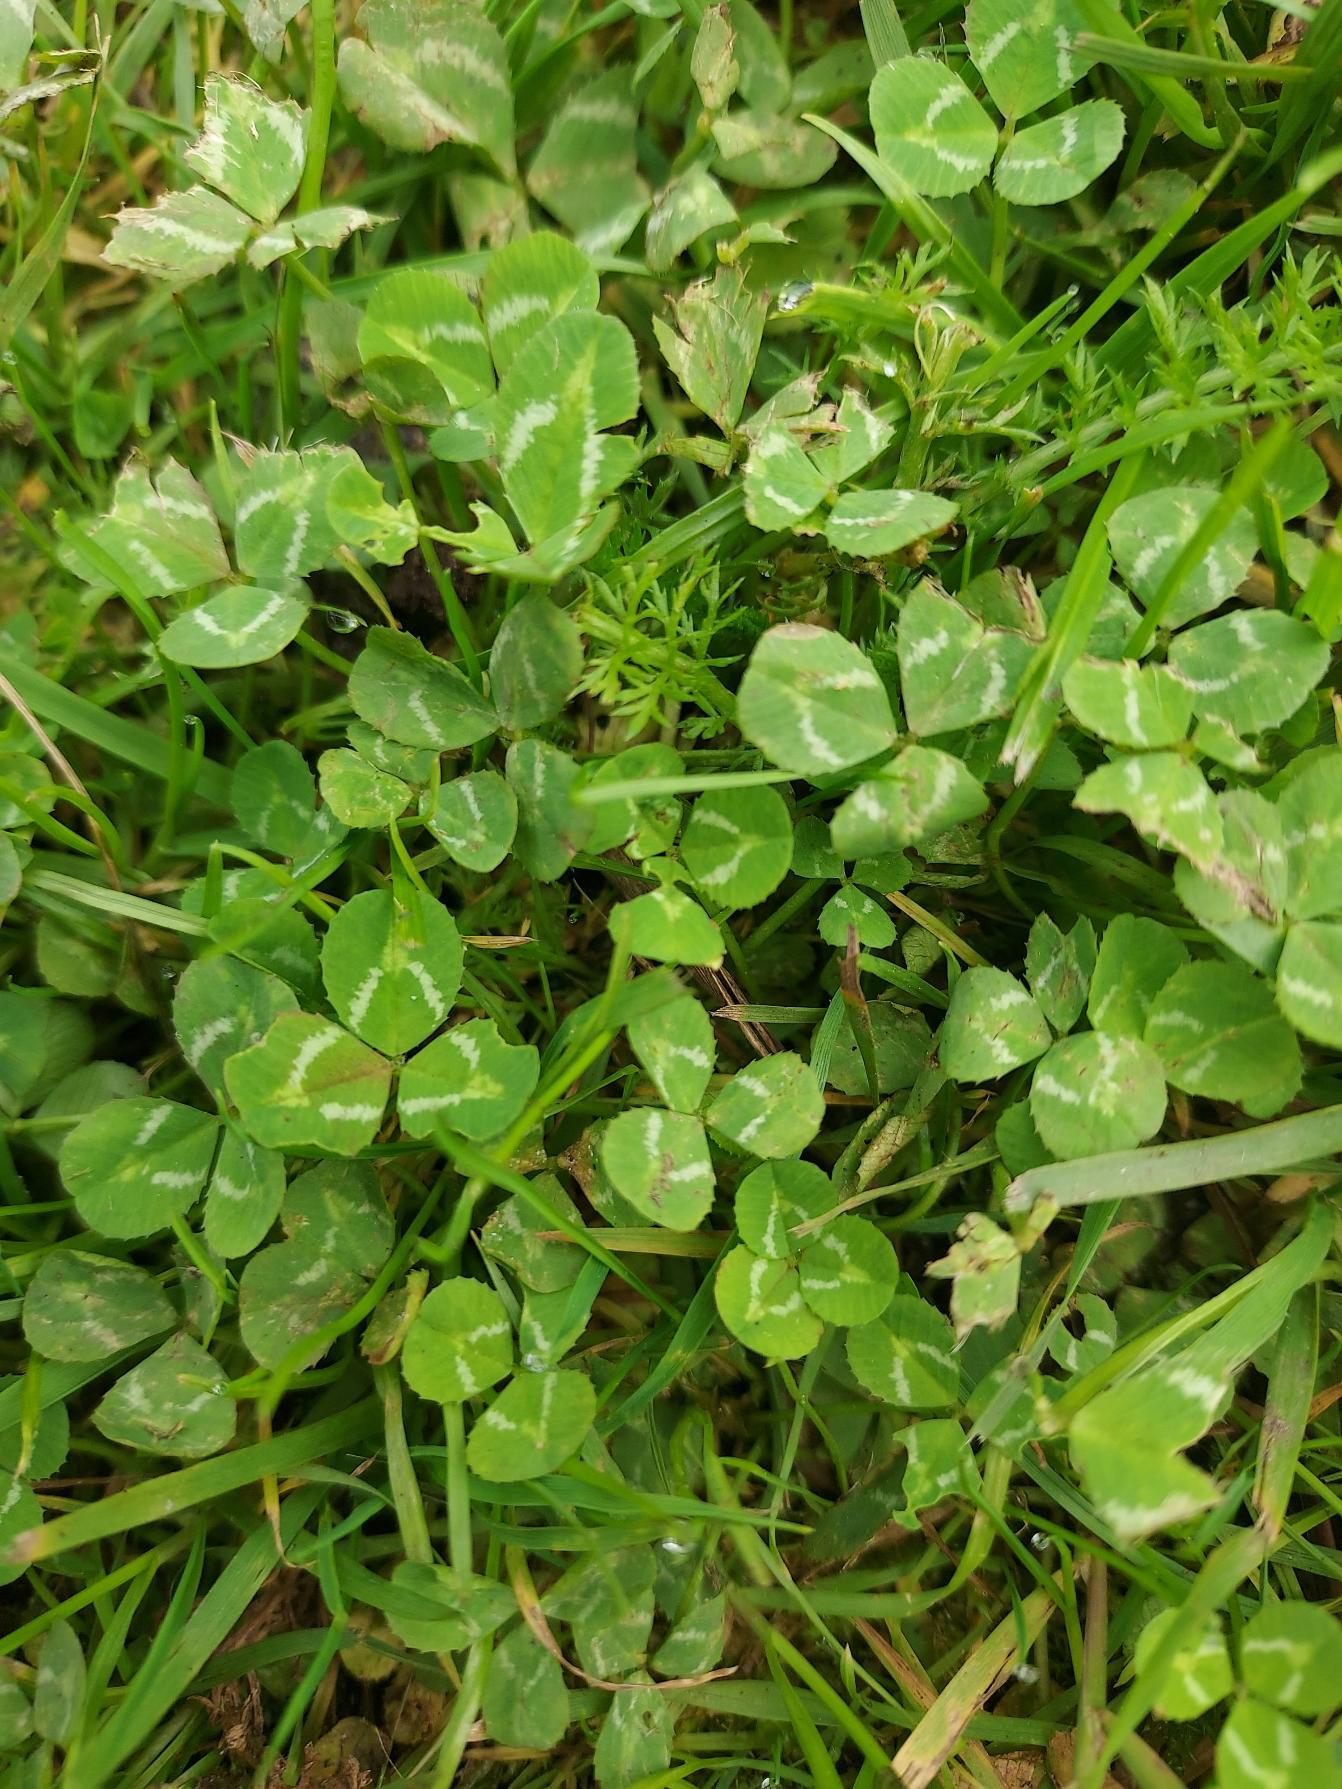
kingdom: Plantae
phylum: Tracheophyta
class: Magnoliopsida
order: Fabales
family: Fabaceae
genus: Trifolium
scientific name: Trifolium repens
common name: Hvid-kløver
